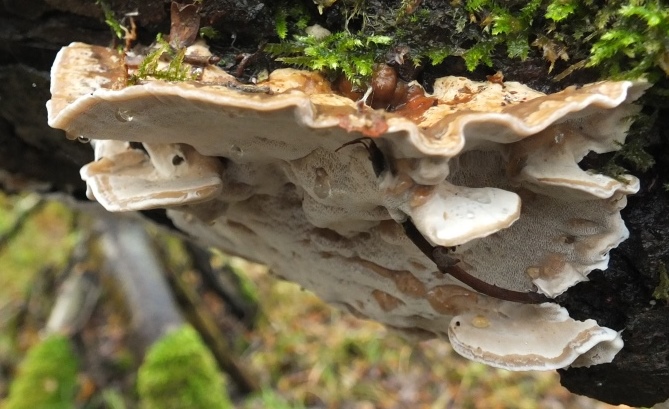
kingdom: Fungi
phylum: Basidiomycota
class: Agaricomycetes
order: Polyporales
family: Phanerochaetaceae
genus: Bjerkandera
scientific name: Bjerkandera fumosa
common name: grågul sodporesvamp
